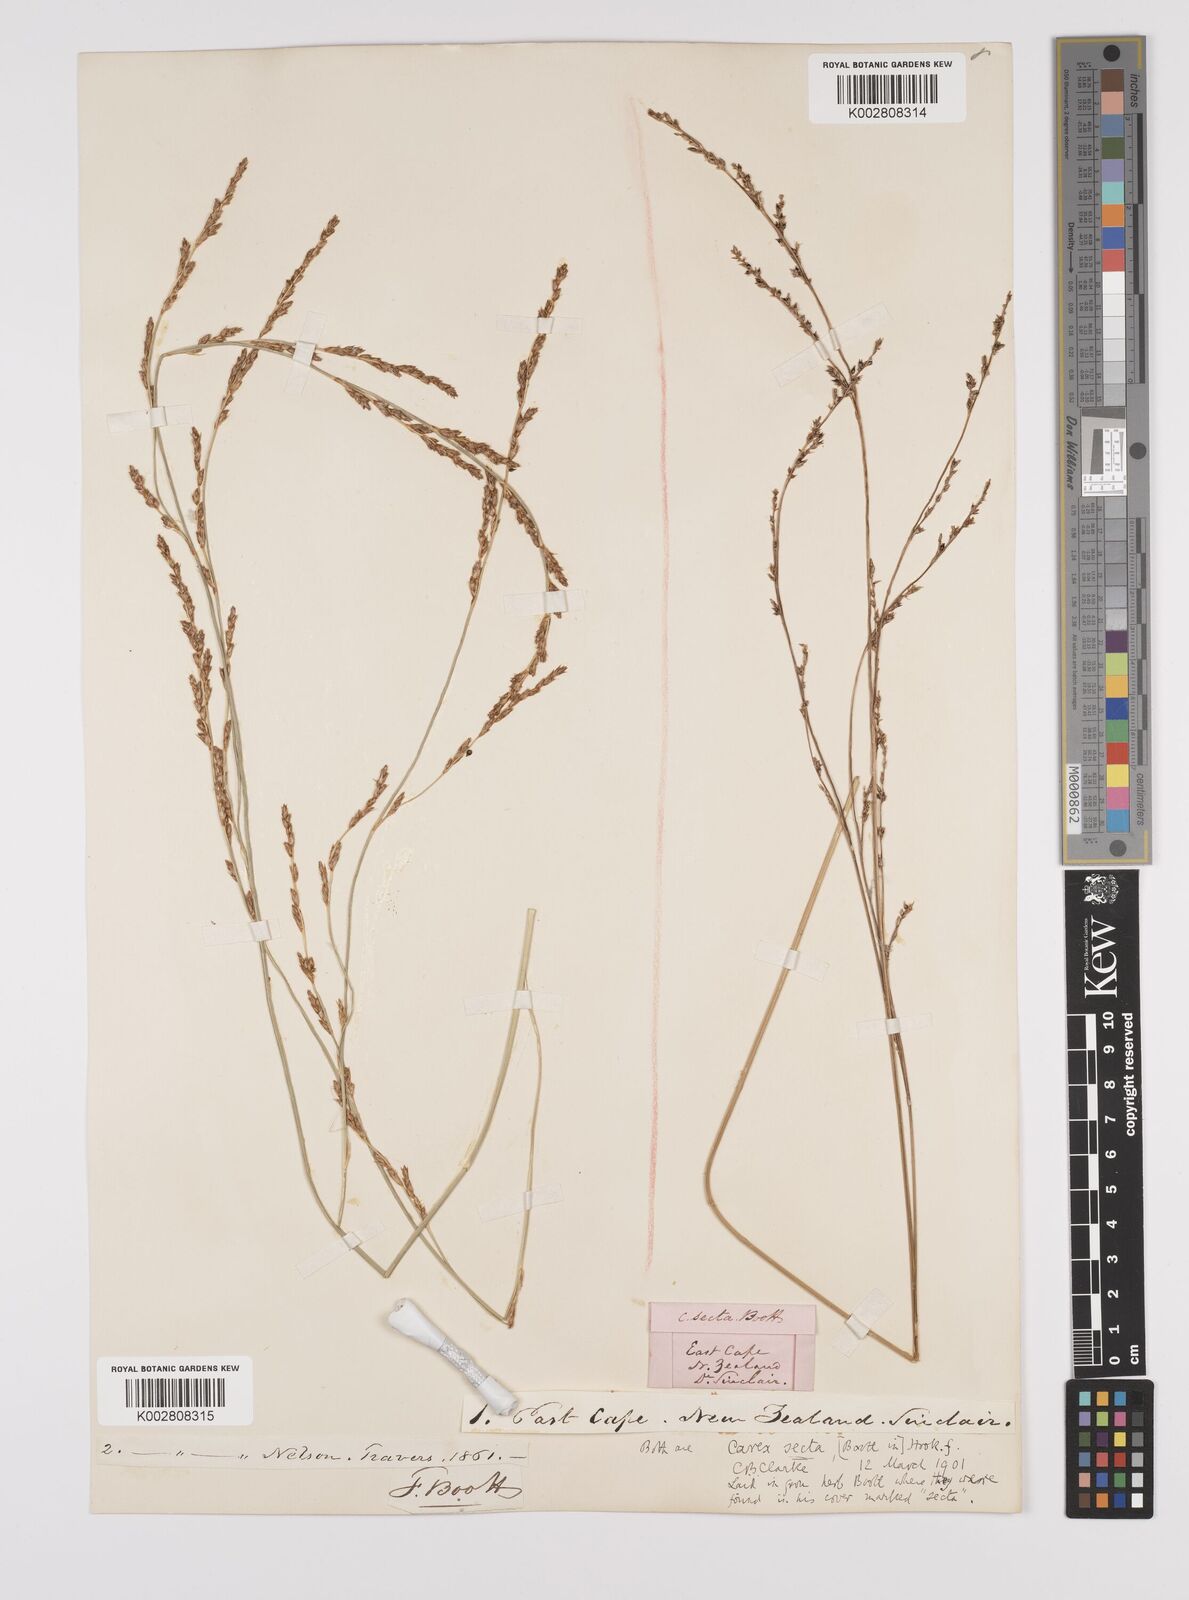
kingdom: Plantae
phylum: Tracheophyta
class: Liliopsida
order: Poales
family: Cyperaceae
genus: Carex
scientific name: Carex appressa
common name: Tussock sedge
